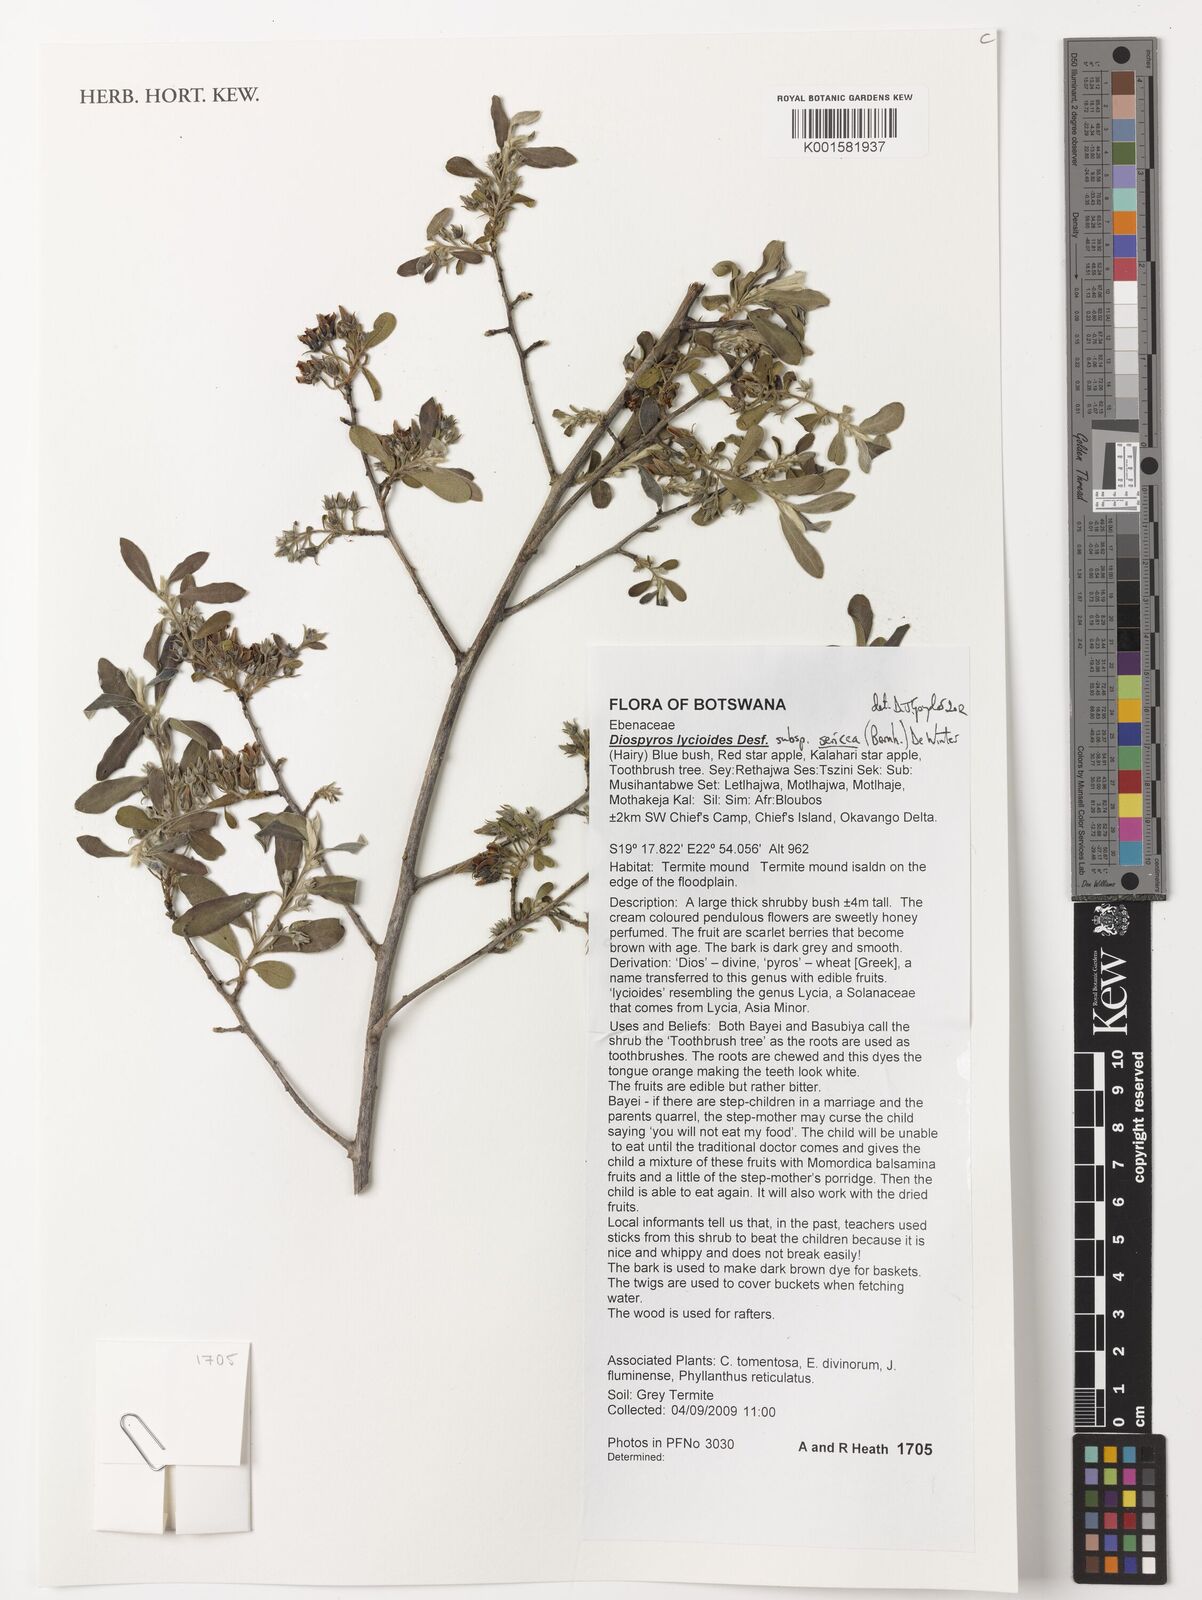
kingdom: Plantae
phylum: Tracheophyta
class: Magnoliopsida
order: Ericales
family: Ebenaceae
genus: Diospyros
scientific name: Diospyros lycioides
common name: Red star apple
